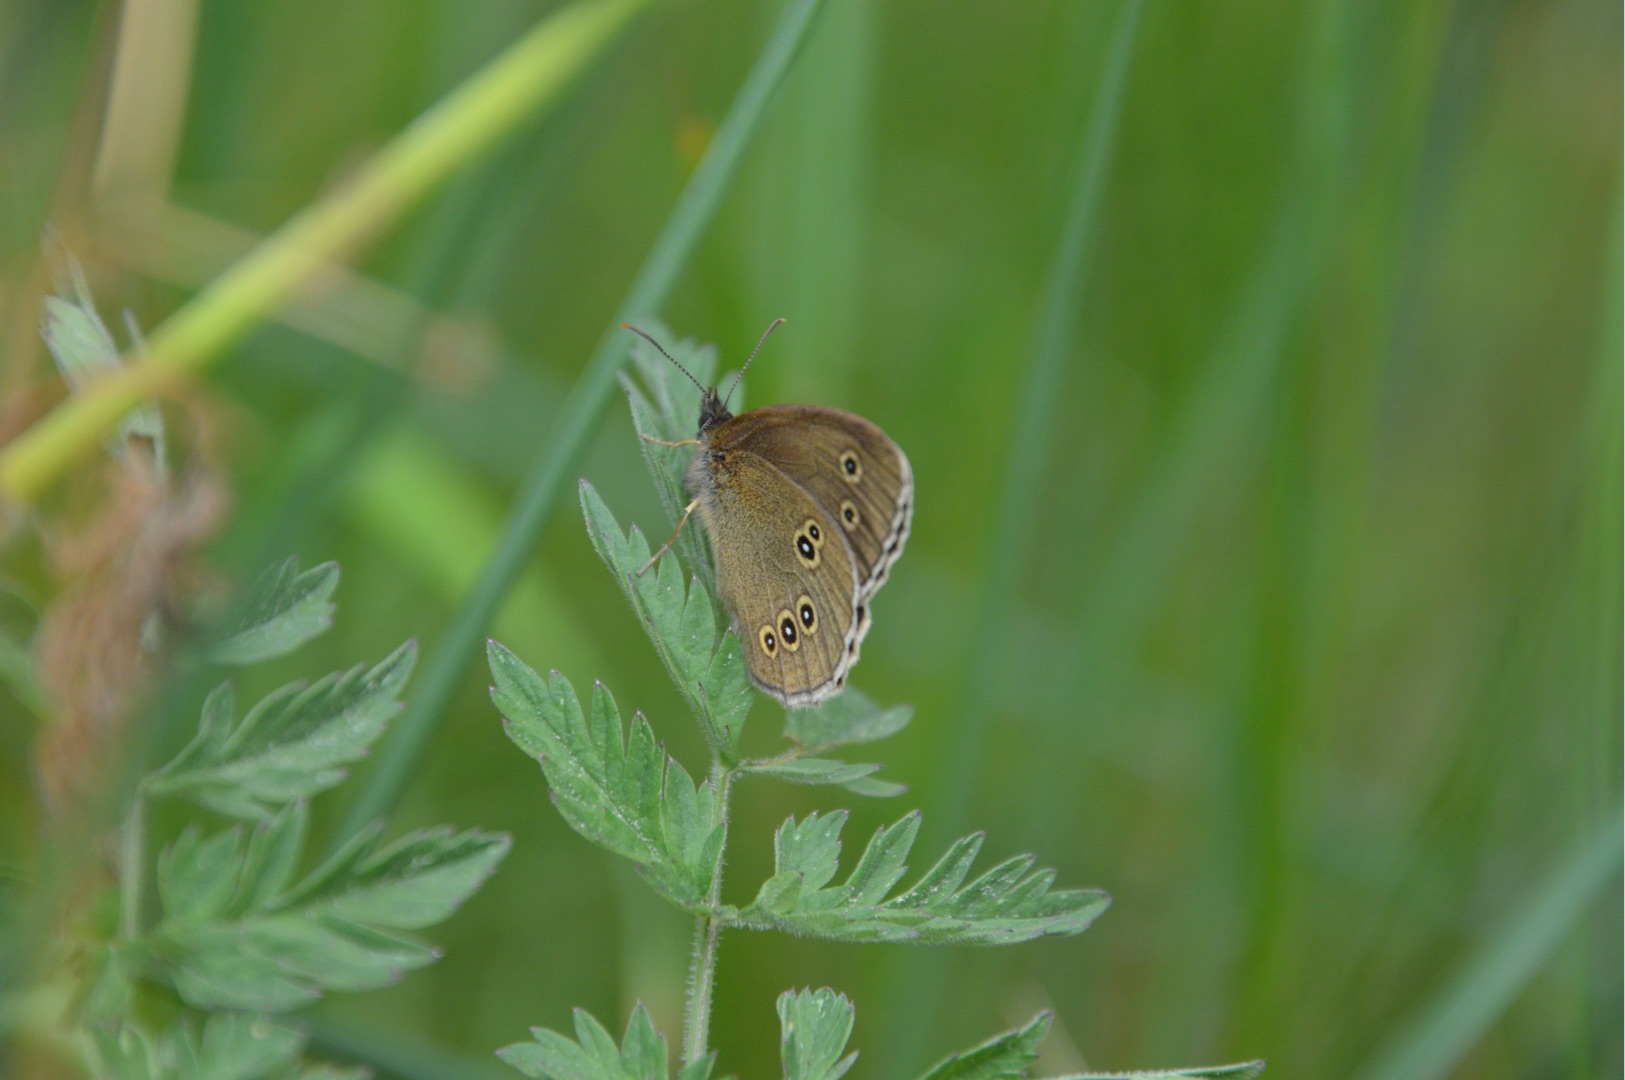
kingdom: Animalia
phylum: Arthropoda
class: Insecta
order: Lepidoptera
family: Nymphalidae
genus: Aphantopus
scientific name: Aphantopus hyperantus
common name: Engrandøje
